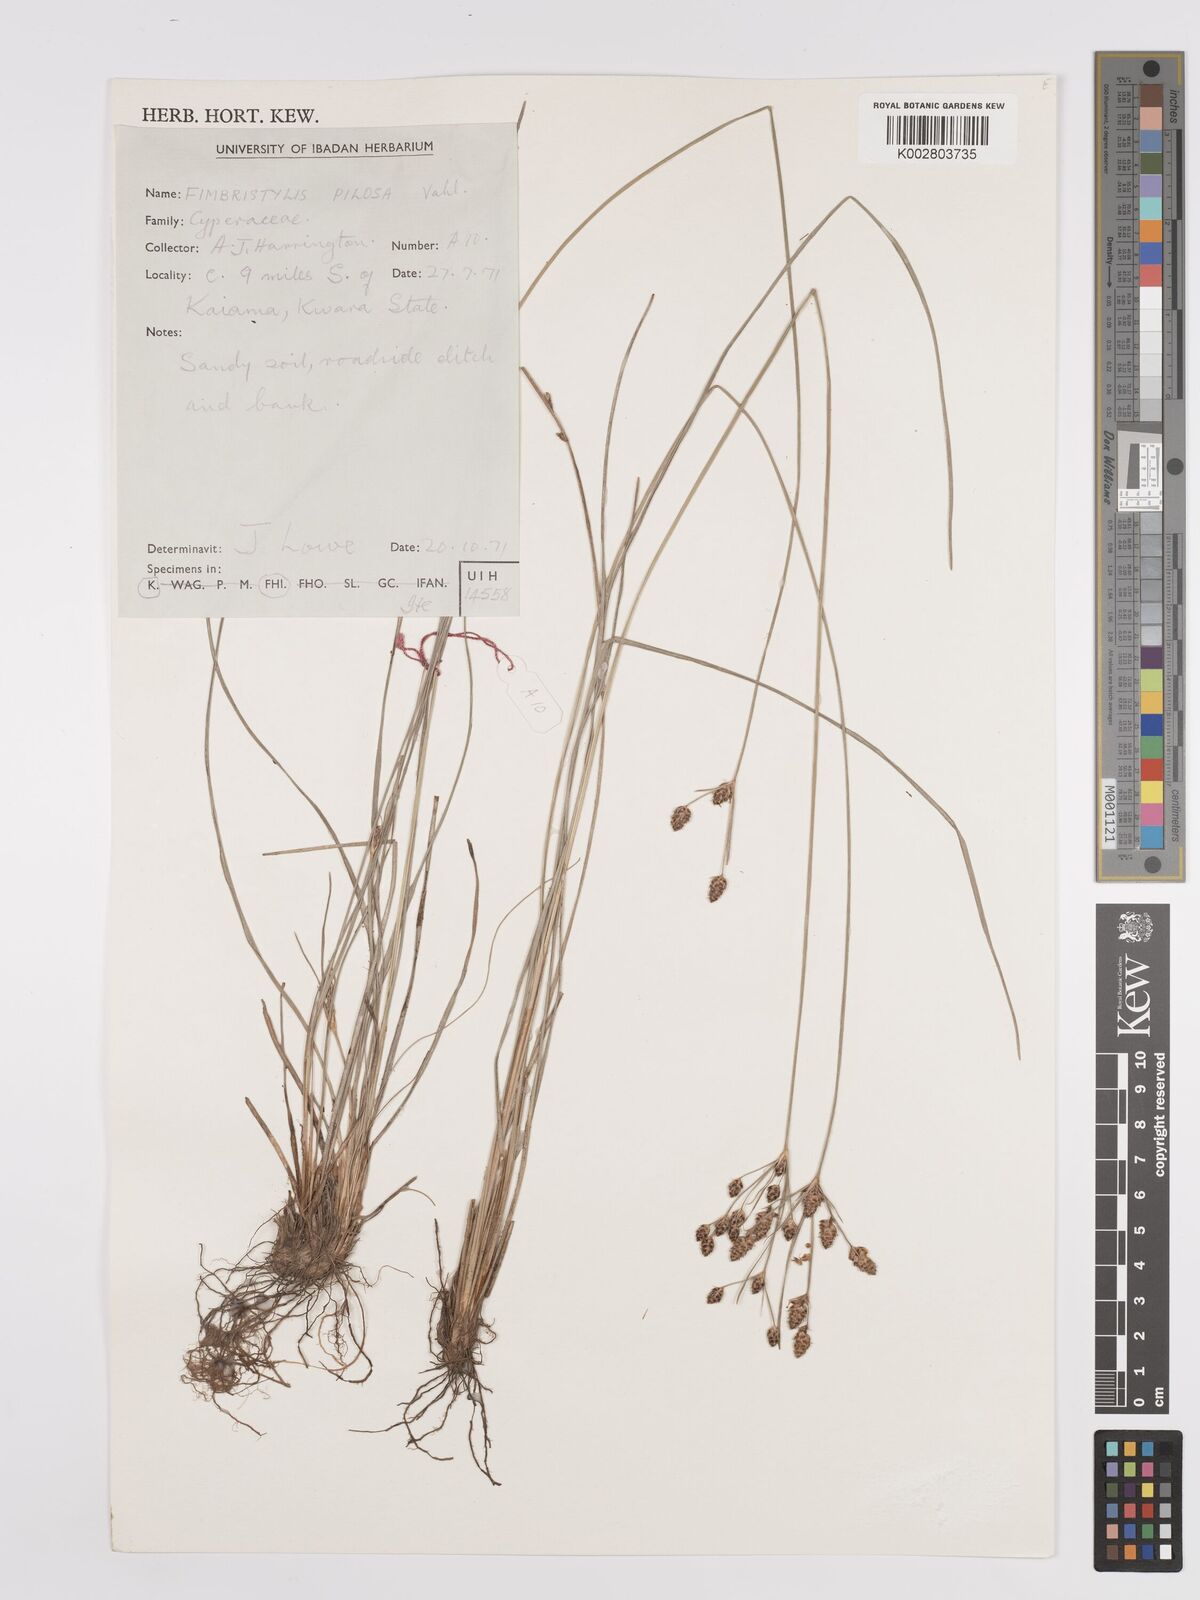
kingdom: Plantae
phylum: Tracheophyta
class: Liliopsida
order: Poales
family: Cyperaceae
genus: Fimbristylis
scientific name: Fimbristylis pilosa
